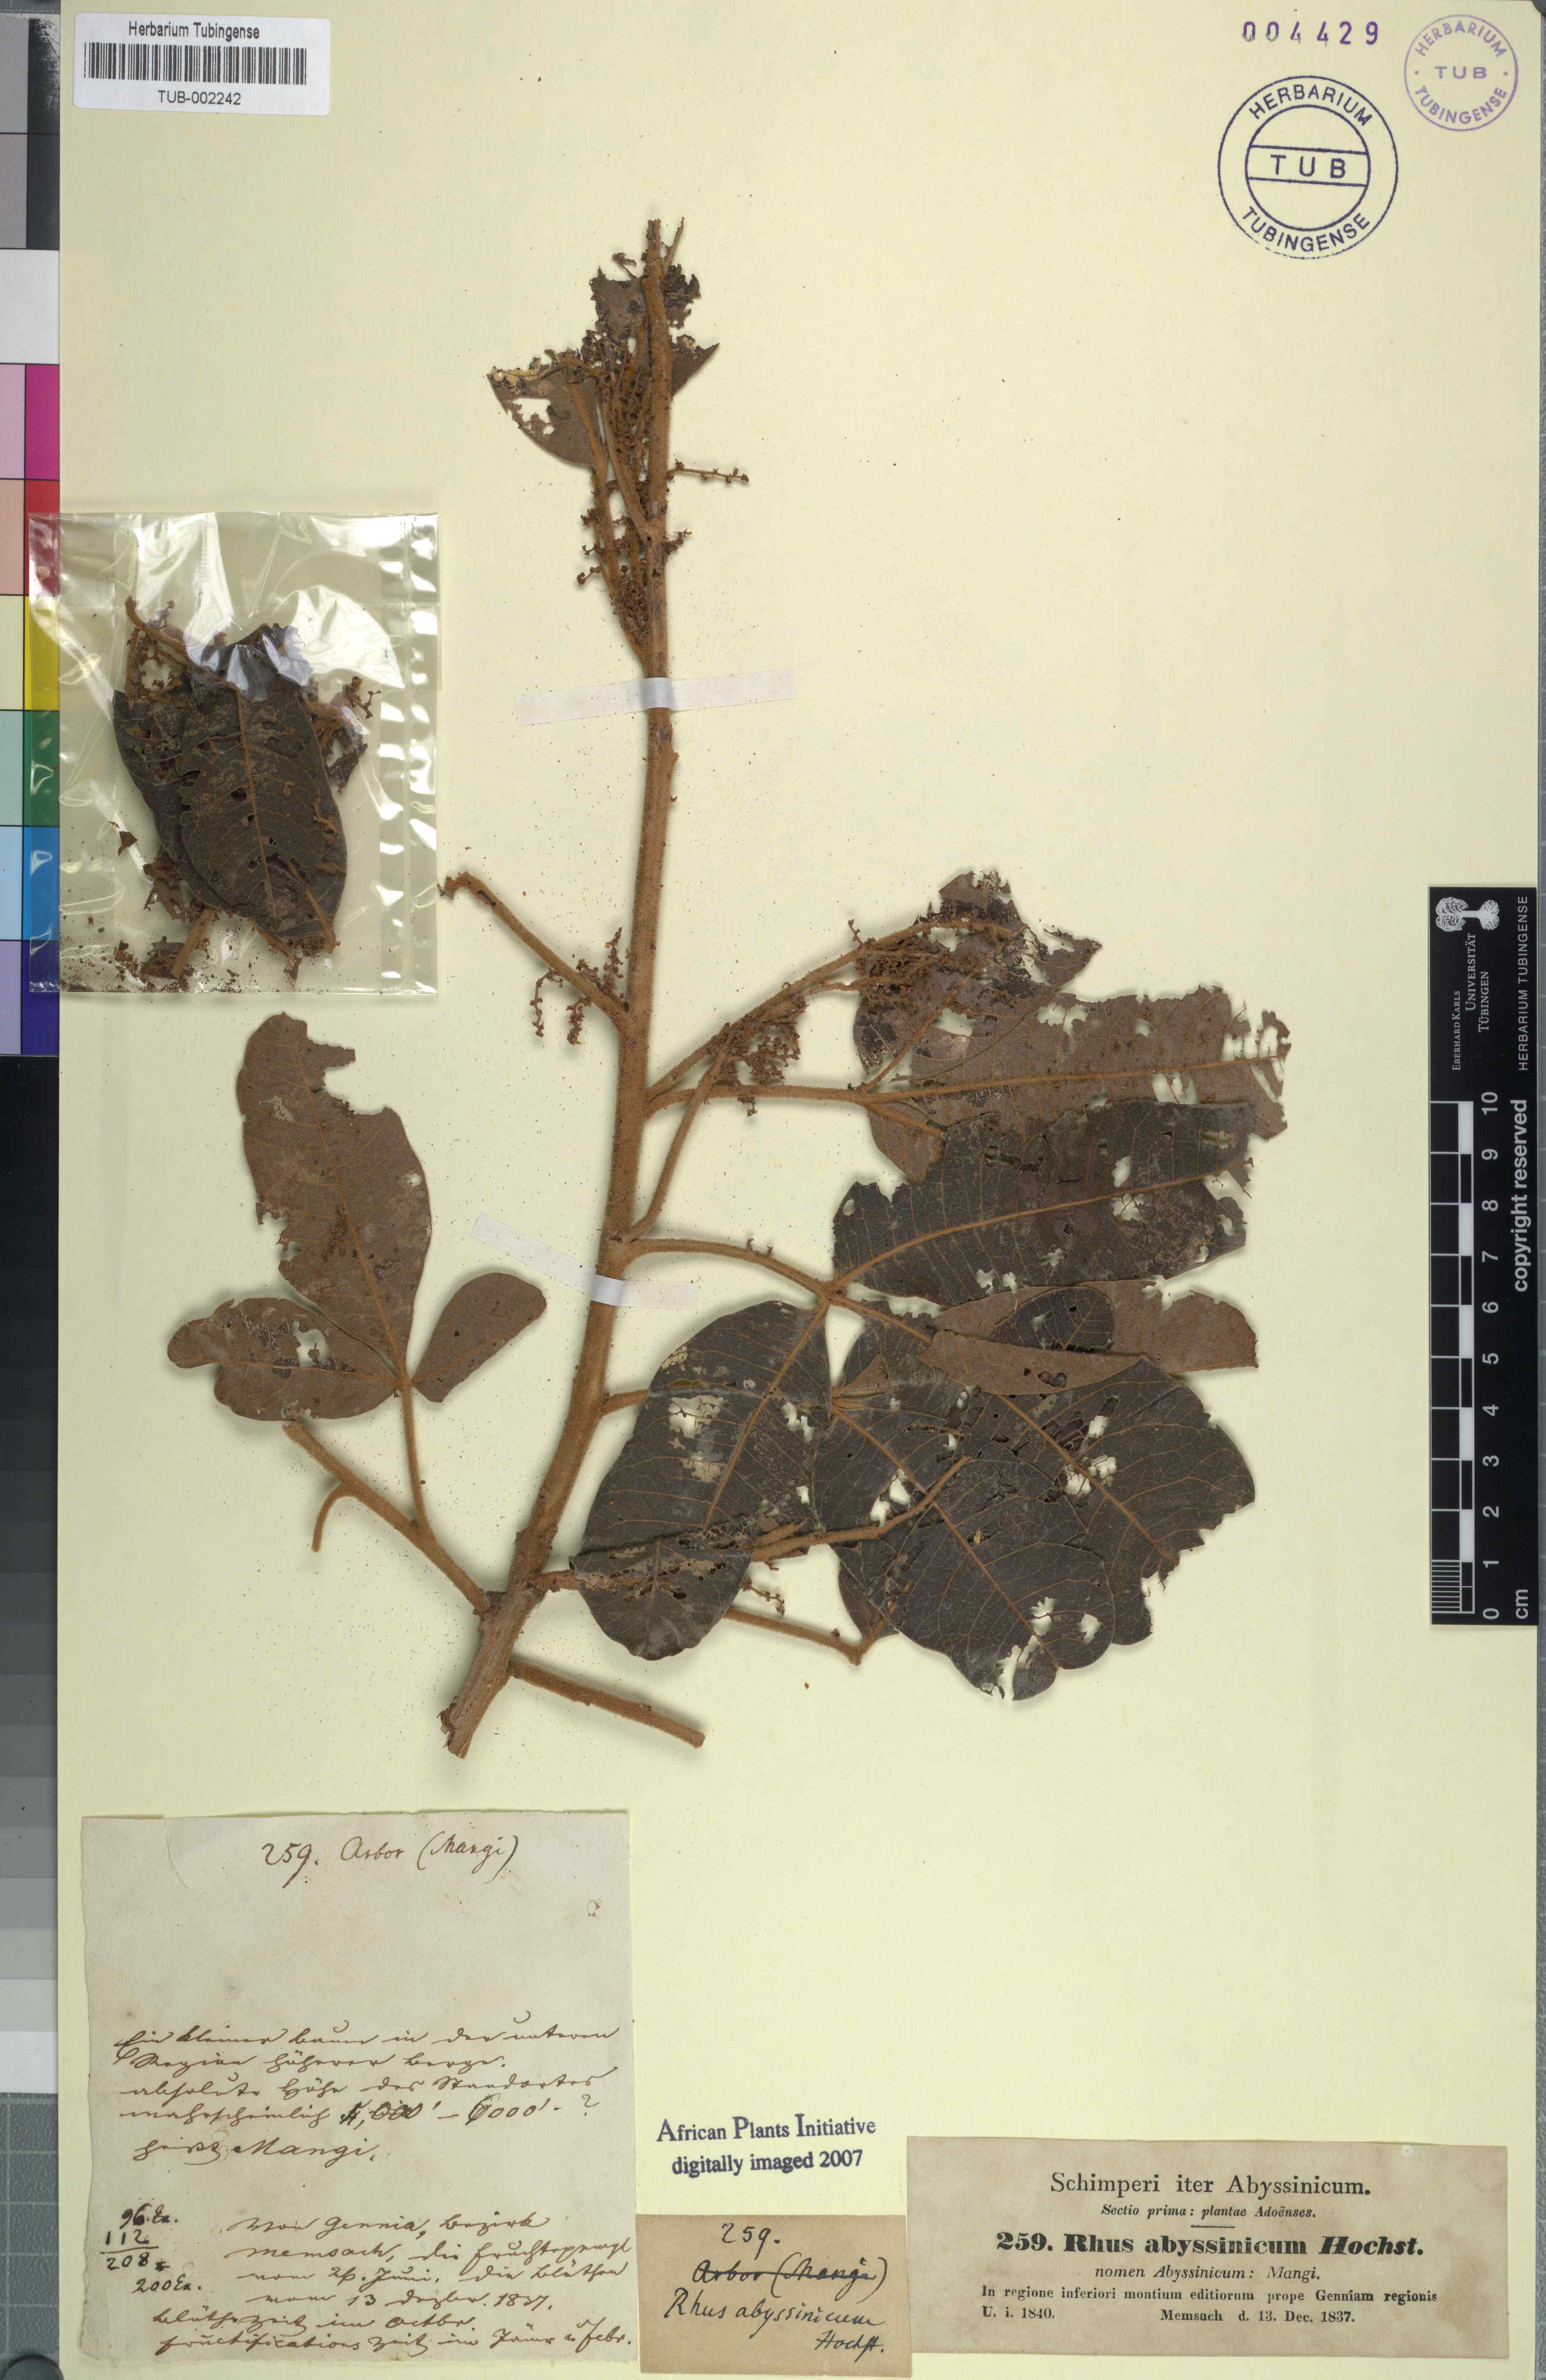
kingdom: Plantae
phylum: Tracheophyta
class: Magnoliopsida
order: Sapindales
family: Anacardiaceae
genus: Searsia
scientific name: Searsia glutinosa
